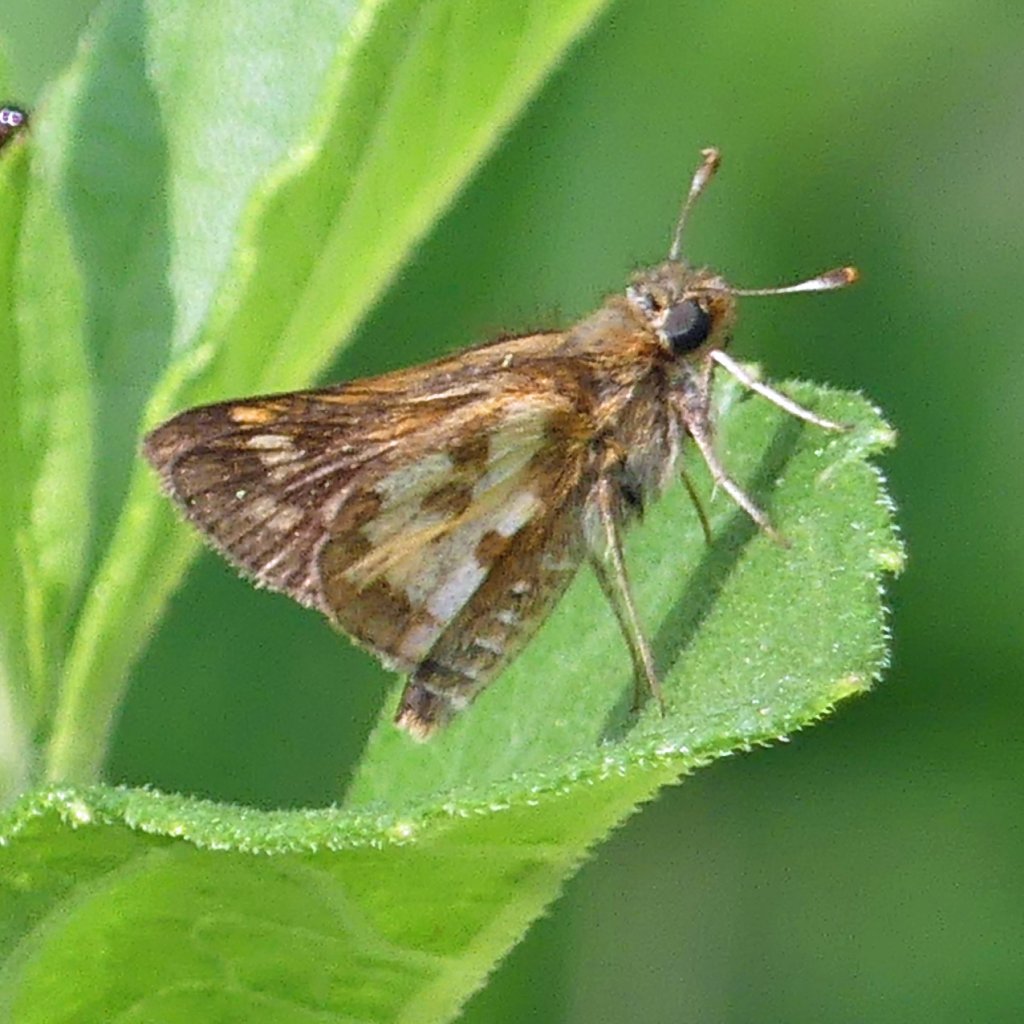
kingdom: Animalia
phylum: Arthropoda
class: Insecta
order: Lepidoptera
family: Hesperiidae
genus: Polites
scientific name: Polites coras
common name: Peck's Skipper
